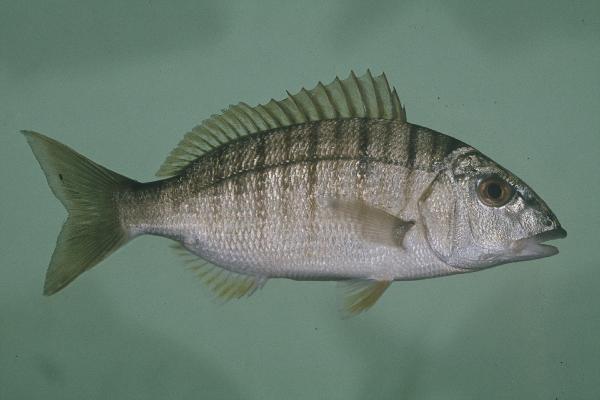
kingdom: Animalia
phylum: Chordata
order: Perciformes
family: Sparidae
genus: Lithognathus
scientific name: Lithognathus mormyrus
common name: Sand steenbras
